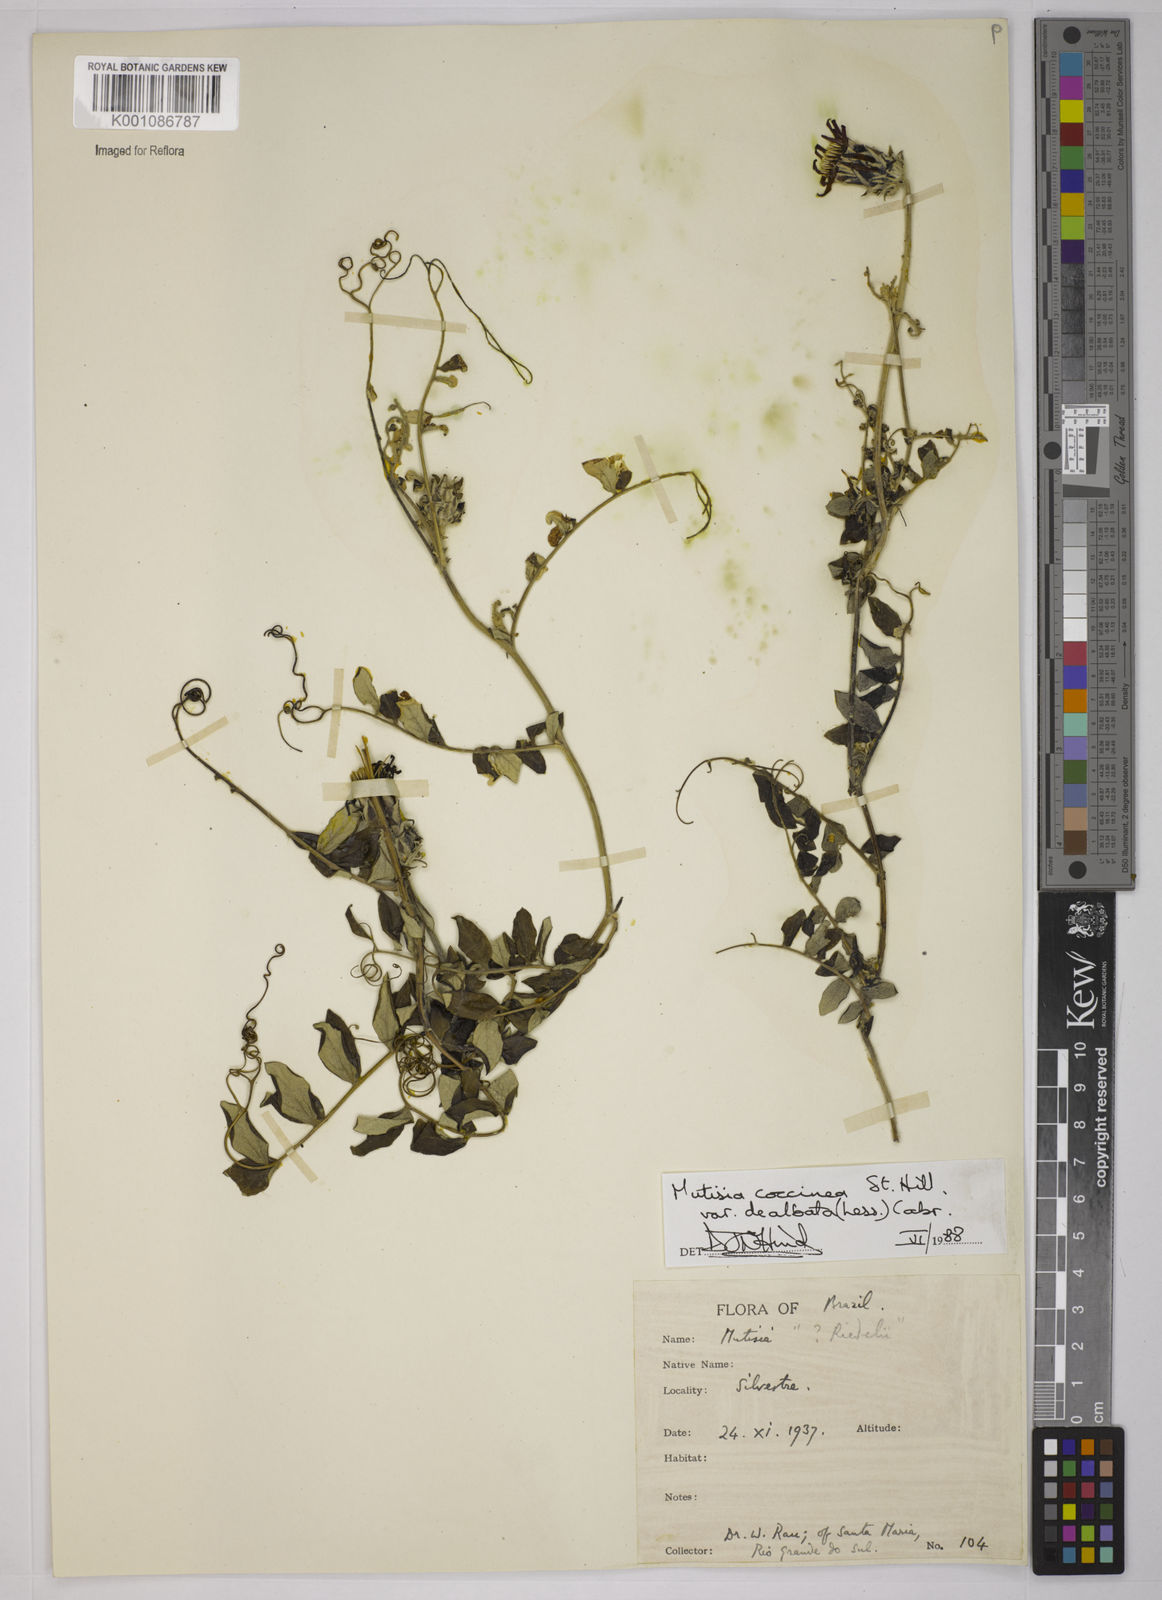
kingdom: Plantae
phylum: Tracheophyta
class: Magnoliopsida
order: Asterales
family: Asteraceae
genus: Mutisia
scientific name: Mutisia coccinea
